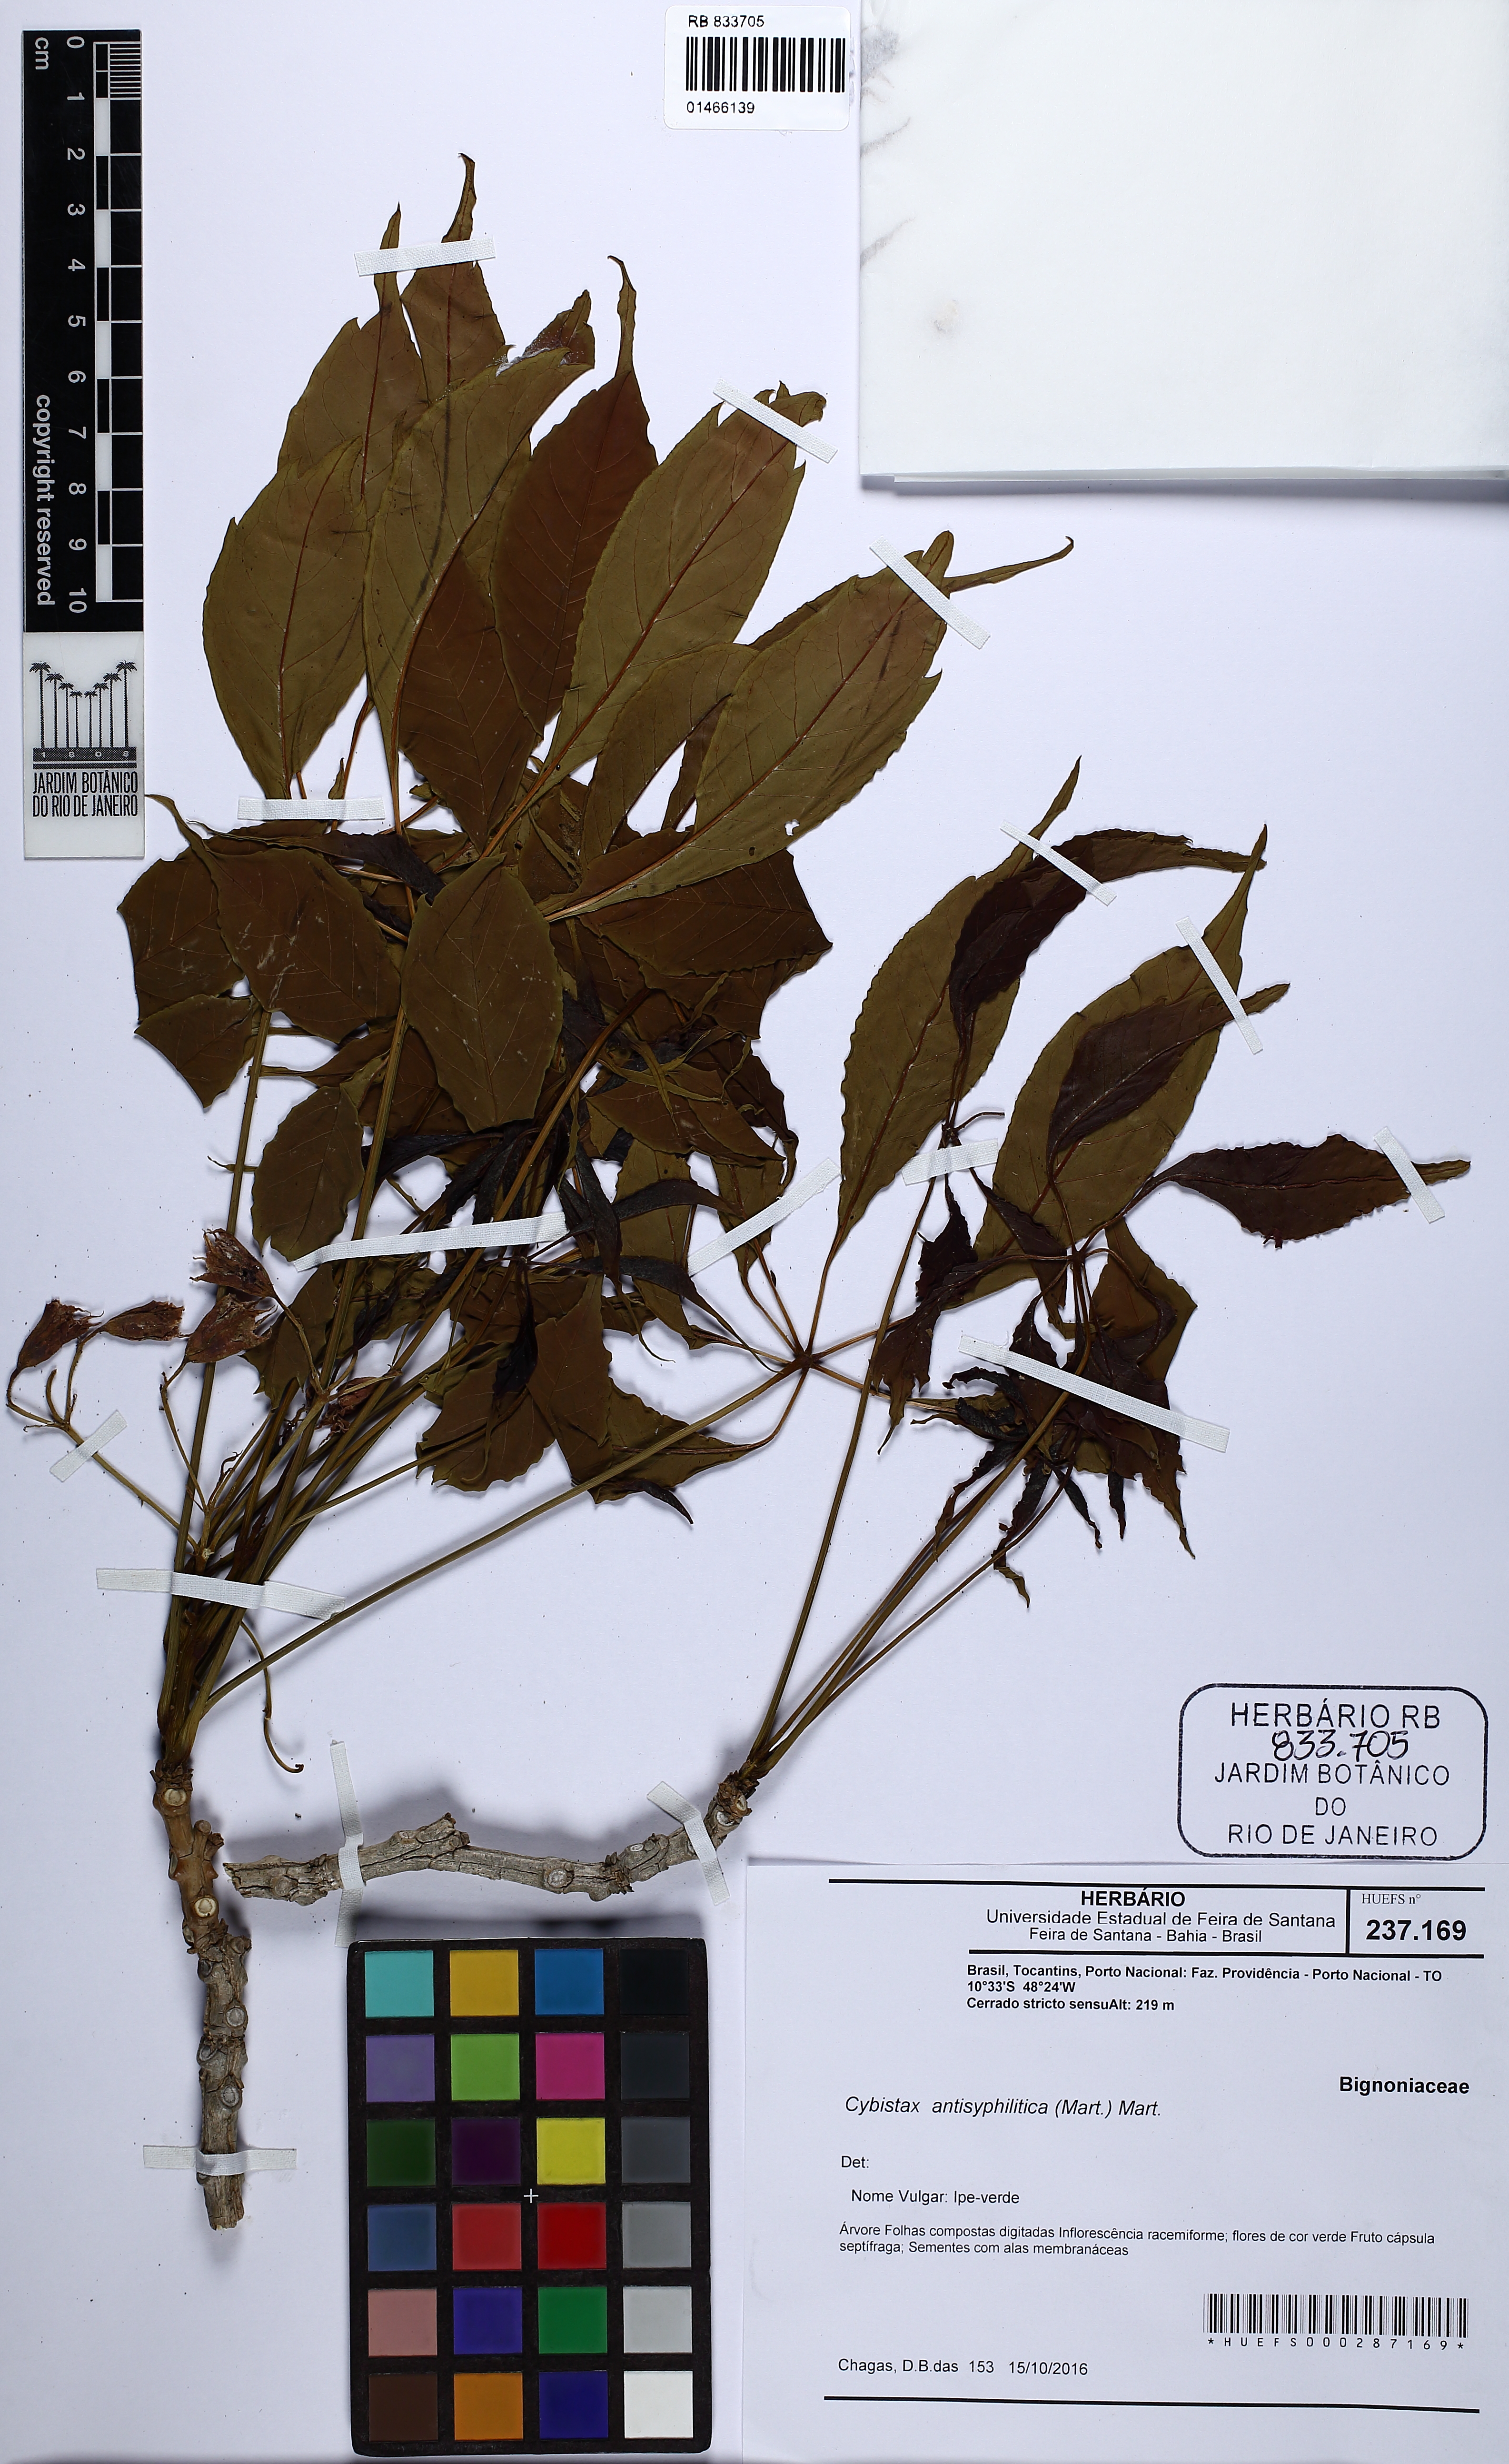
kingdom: Plantae
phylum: Tracheophyta
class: Magnoliopsida
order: Lamiales
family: Bignoniaceae
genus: Cybistax
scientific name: Cybistax antisyphilitica
